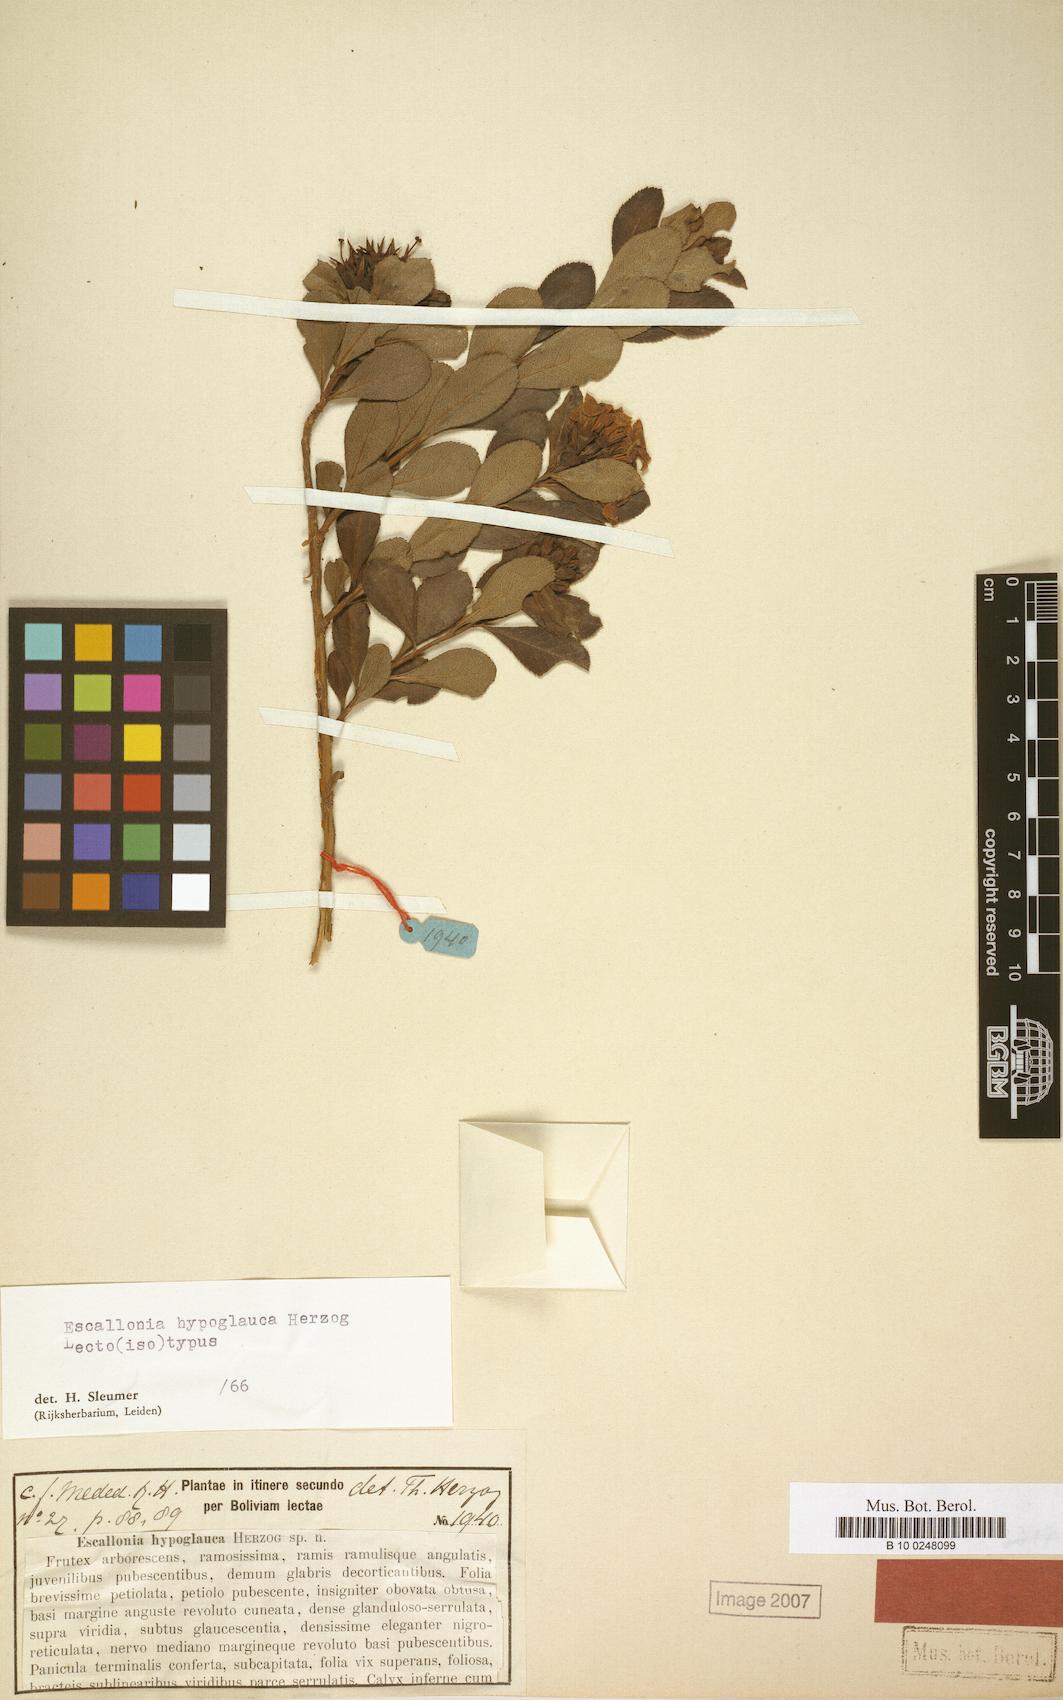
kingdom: Plantae
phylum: Tracheophyta
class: Magnoliopsida
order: Escalloniales
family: Escalloniaceae
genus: Escallonia
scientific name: Escallonia hypoglauca
